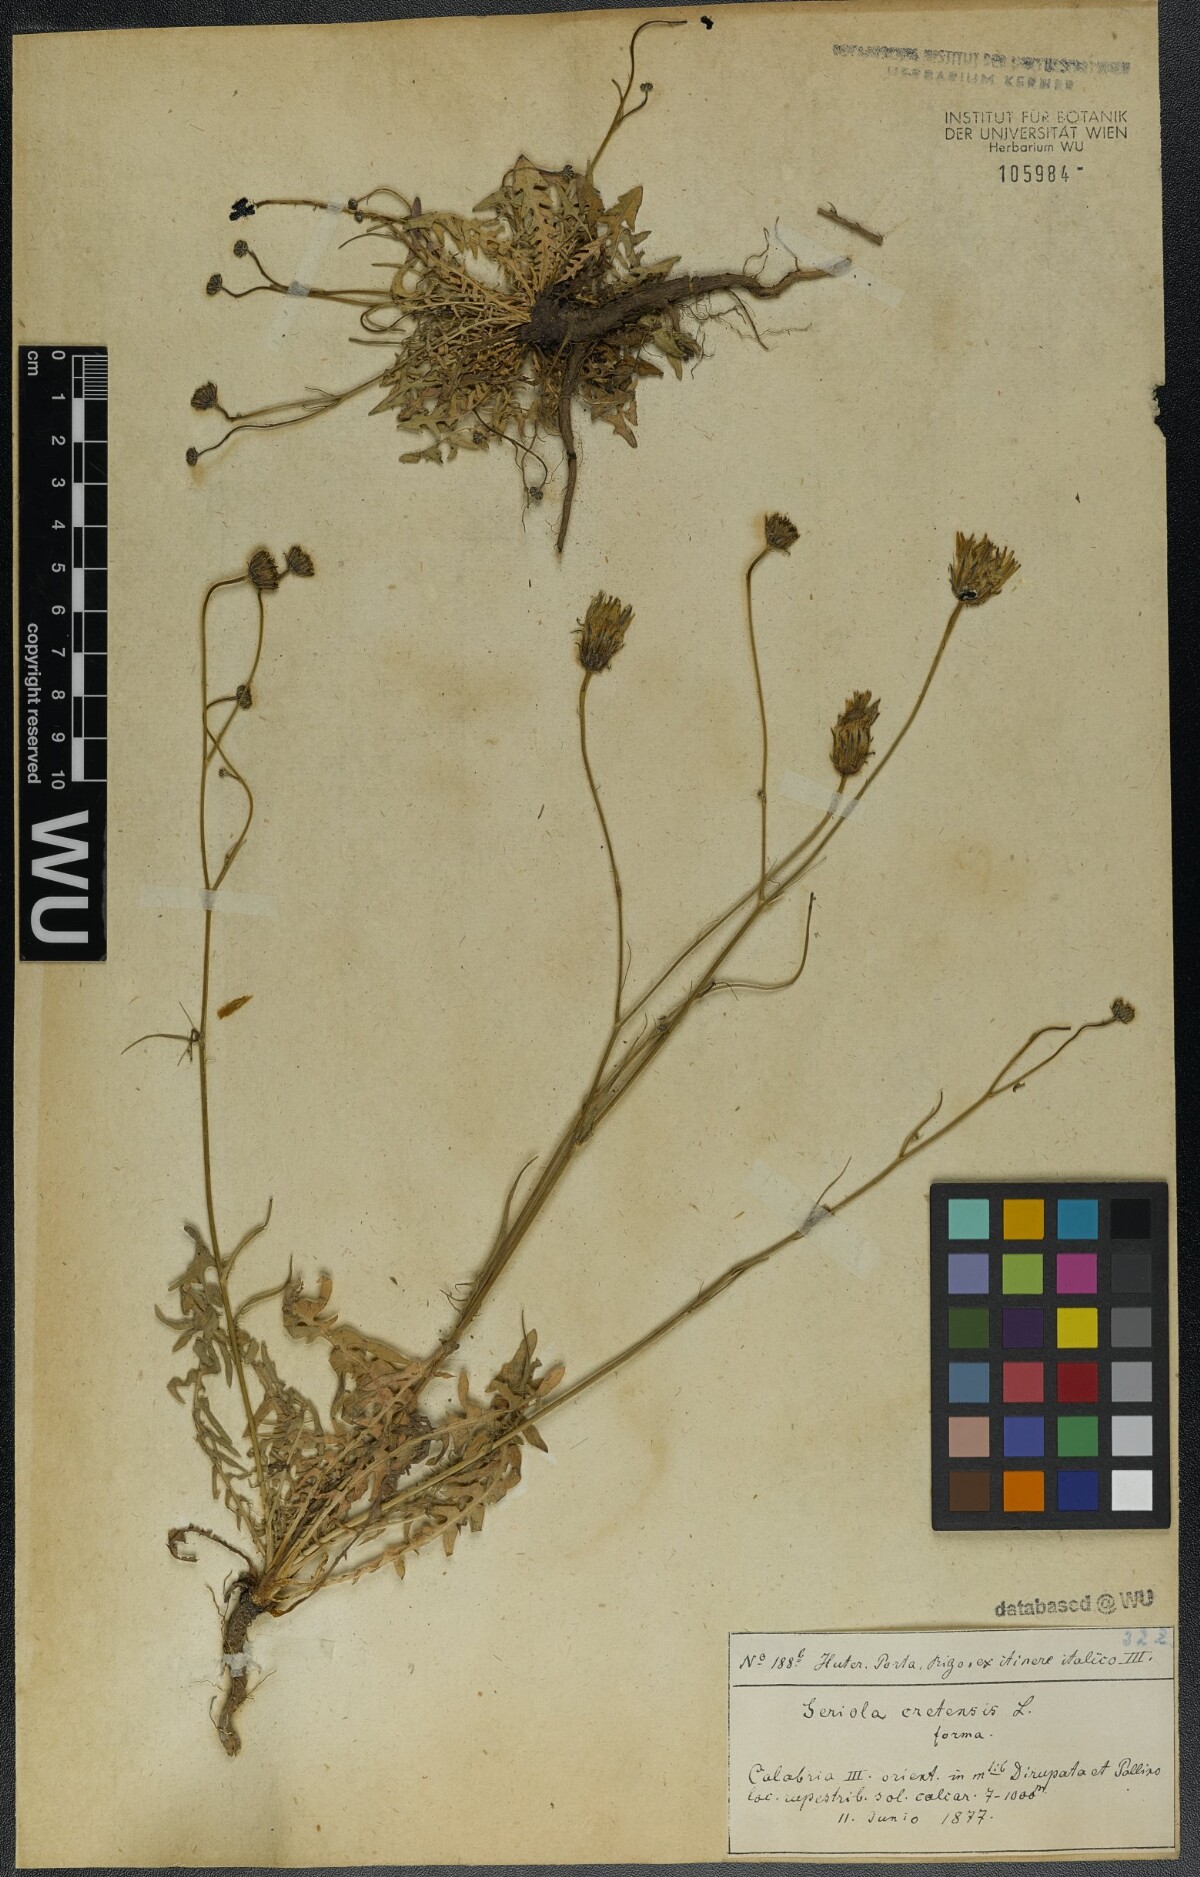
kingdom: Plantae
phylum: Tracheophyta
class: Magnoliopsida
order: Asterales
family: Asteraceae
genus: Hypochaeris
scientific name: Hypochaeris cretensis
